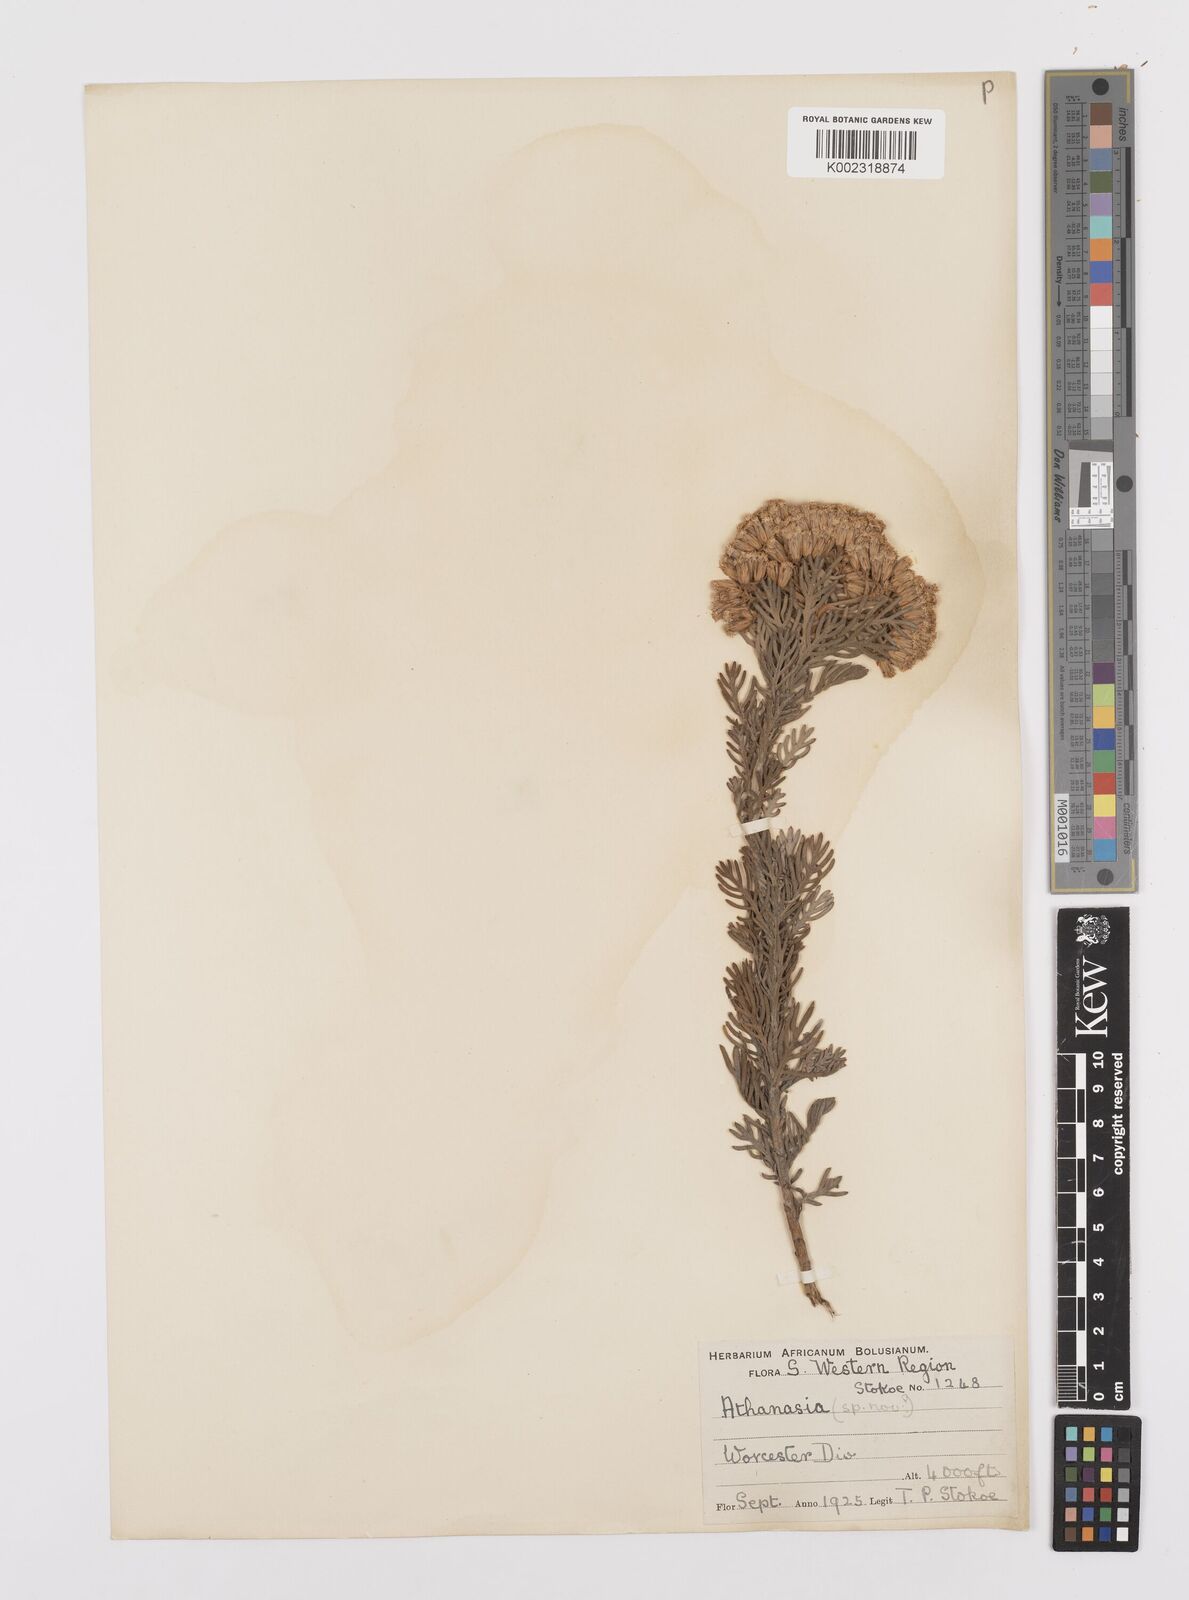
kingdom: Plantae
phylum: Tracheophyta
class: Magnoliopsida
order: Asterales
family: Asteraceae
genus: Hymenolepis
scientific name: Hymenolepis speciosa
